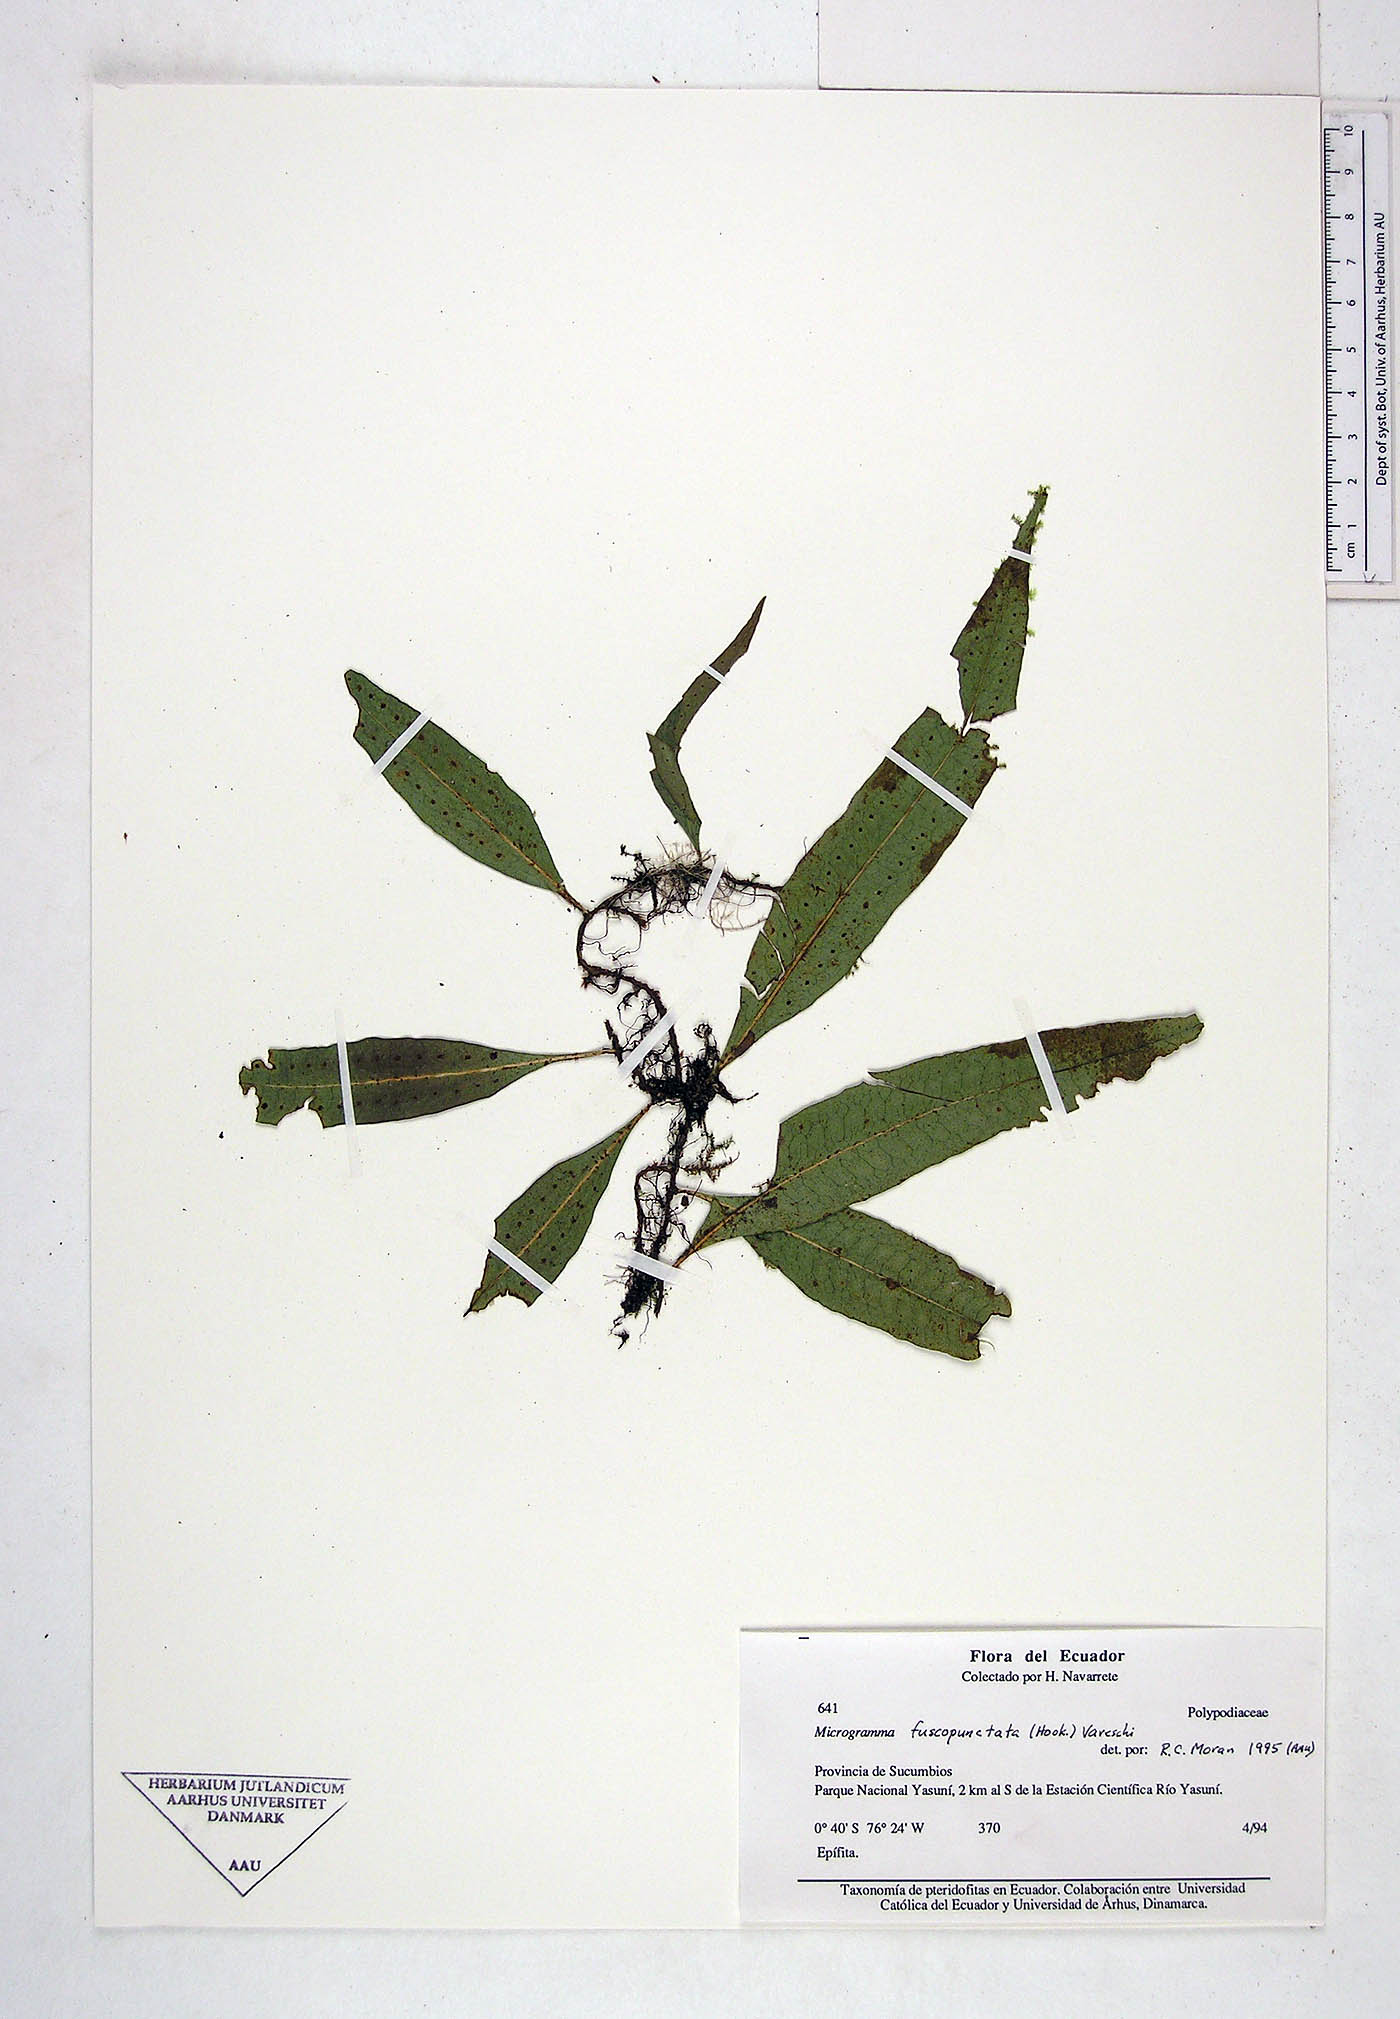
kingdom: Plantae
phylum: Tracheophyta
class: Polypodiopsida
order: Polypodiales
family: Polypodiaceae
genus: Microgramma
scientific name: Microgramma dictyophylla
